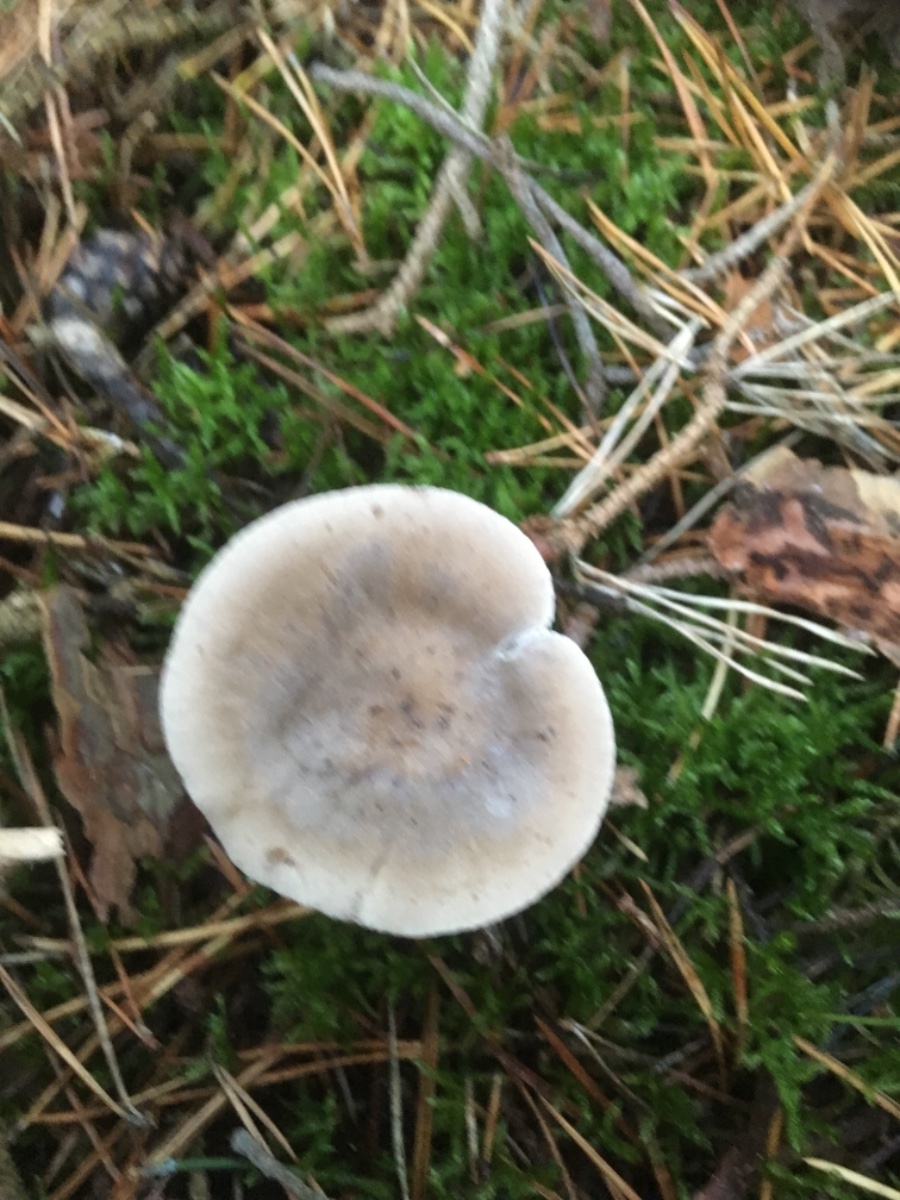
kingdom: Fungi
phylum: Basidiomycota
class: Agaricomycetes
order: Agaricales
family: Hygrophoraceae
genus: Ampulloclitocybe
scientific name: Ampulloclitocybe clavipes
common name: køllefod
